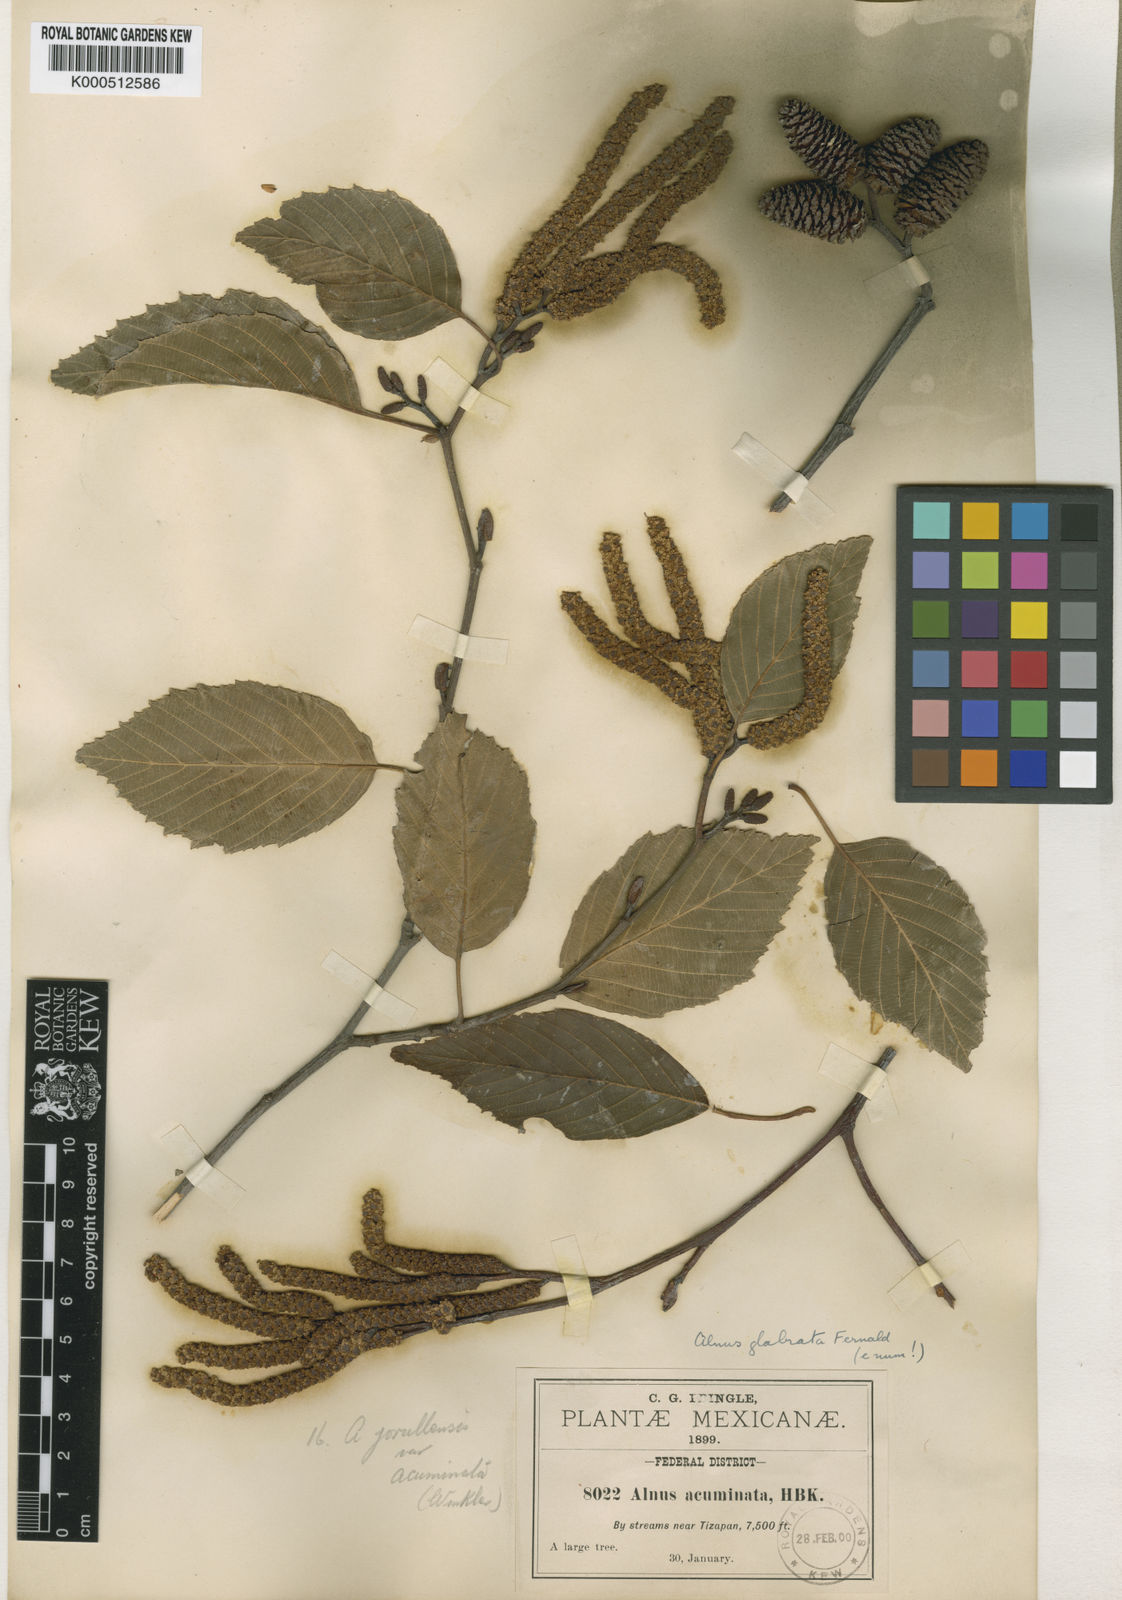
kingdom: Plantae
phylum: Tracheophyta
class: Magnoliopsida
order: Fagales
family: Betulaceae
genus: Alnus
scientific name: Alnus acuminata
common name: Alder
